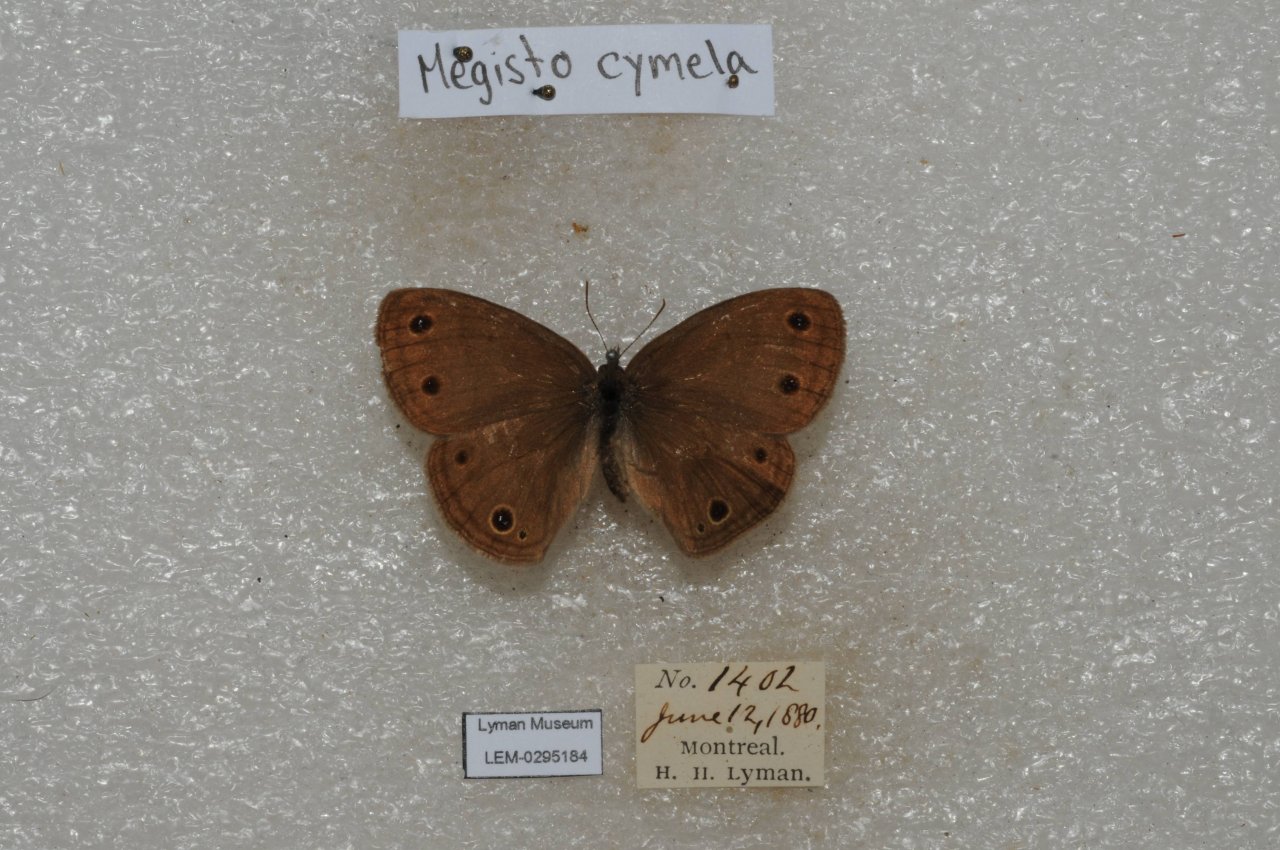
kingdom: Animalia
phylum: Arthropoda
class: Insecta
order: Lepidoptera
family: Nymphalidae
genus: Euptychia
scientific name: Euptychia cymela
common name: Little Wood Satyr
